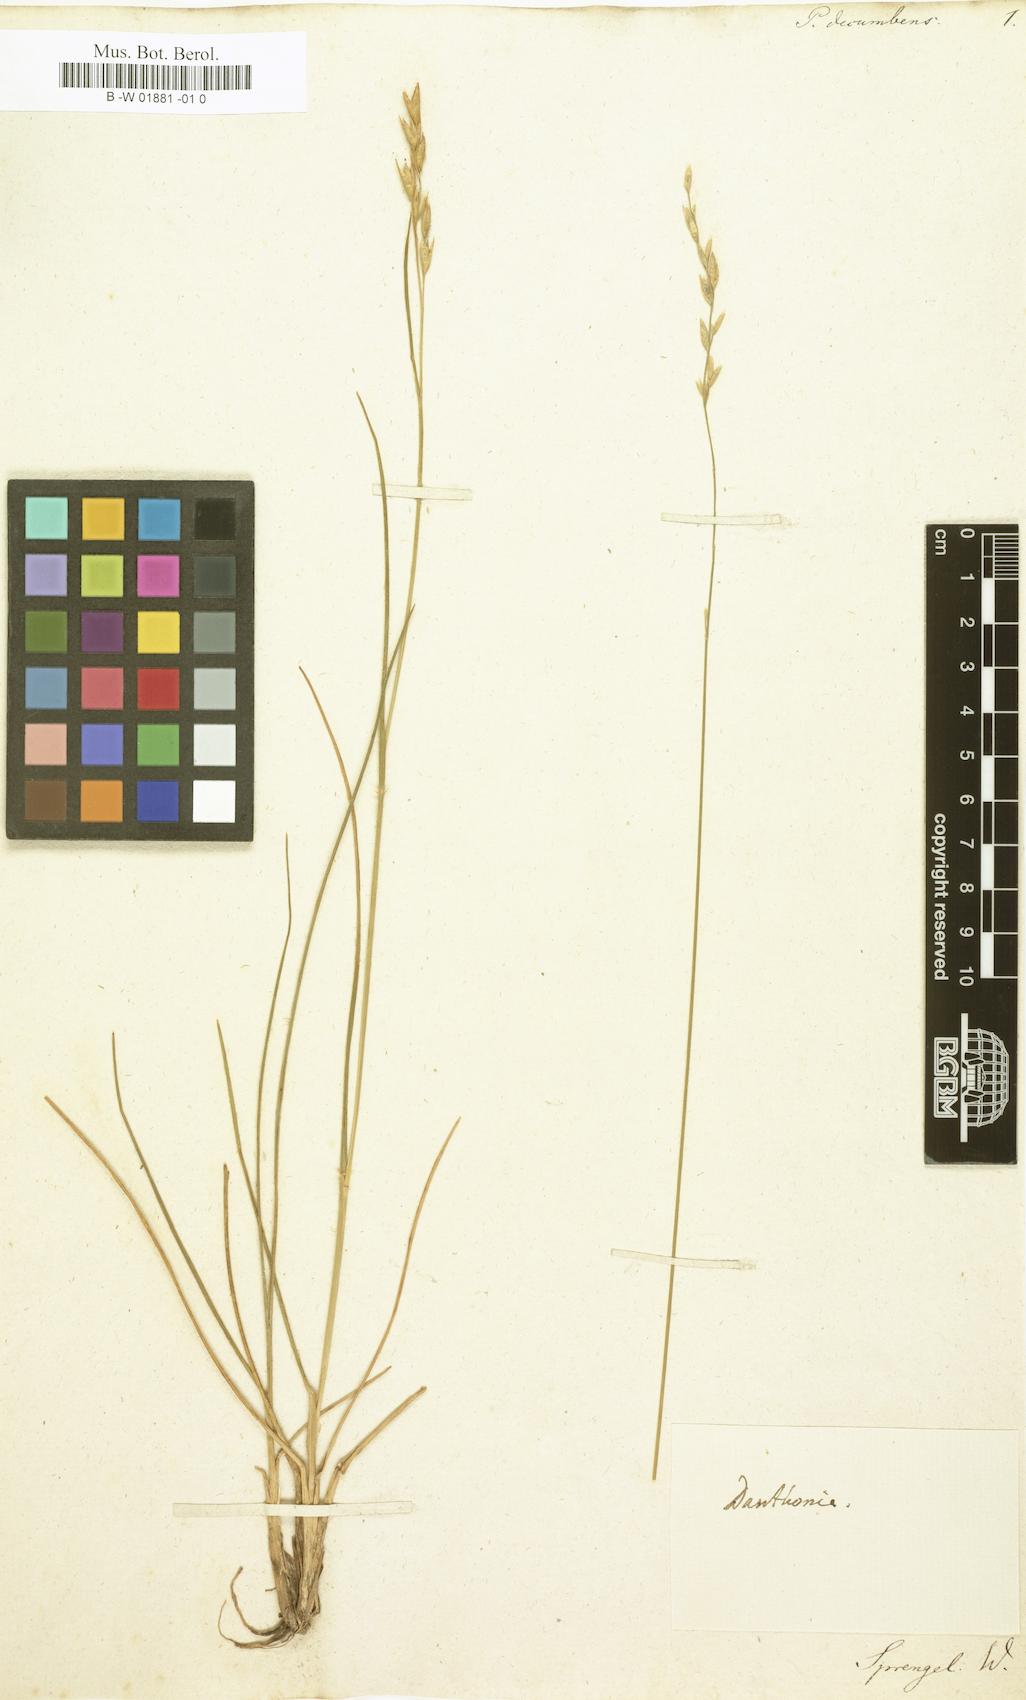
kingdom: Plantae
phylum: Tracheophyta
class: Liliopsida
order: Poales
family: Poaceae
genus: Danthonia
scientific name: Danthonia decumbens
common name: Common heathgrass
